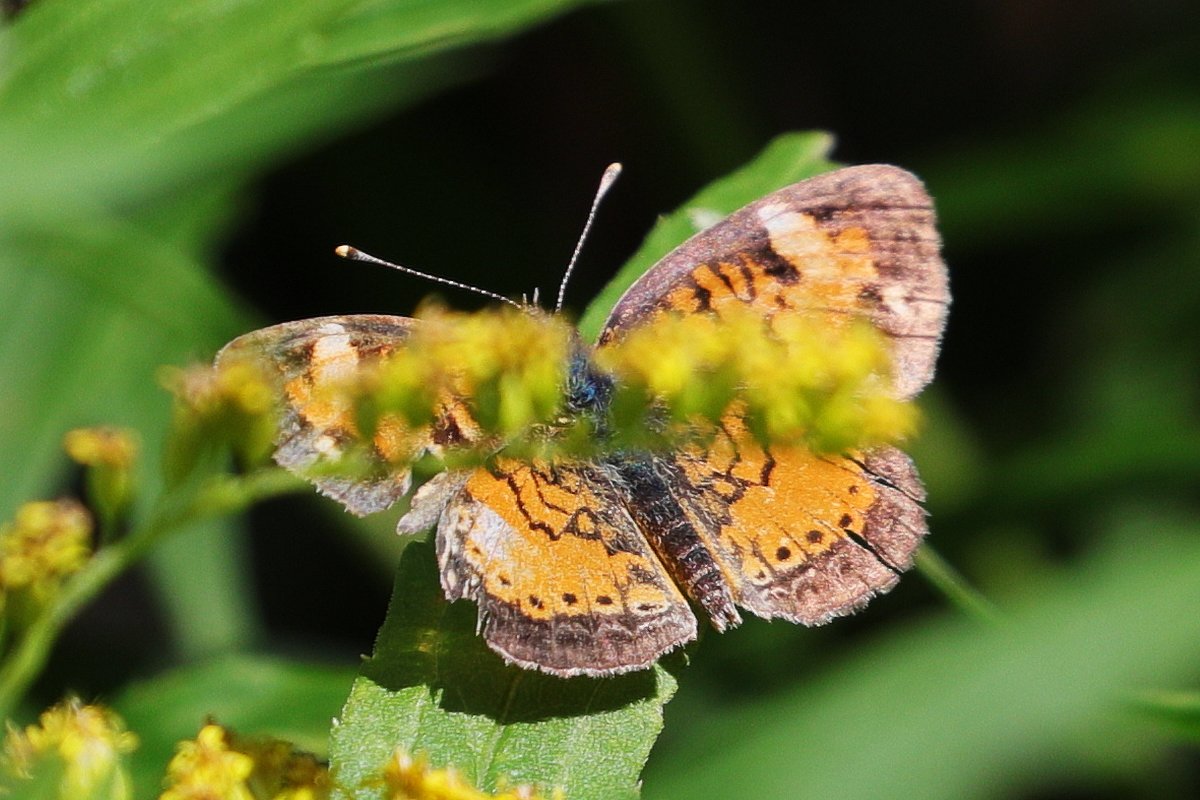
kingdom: Animalia
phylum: Arthropoda
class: Insecta
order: Lepidoptera
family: Nymphalidae
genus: Phyciodes
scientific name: Phyciodes tharos
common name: Northern Crescent
